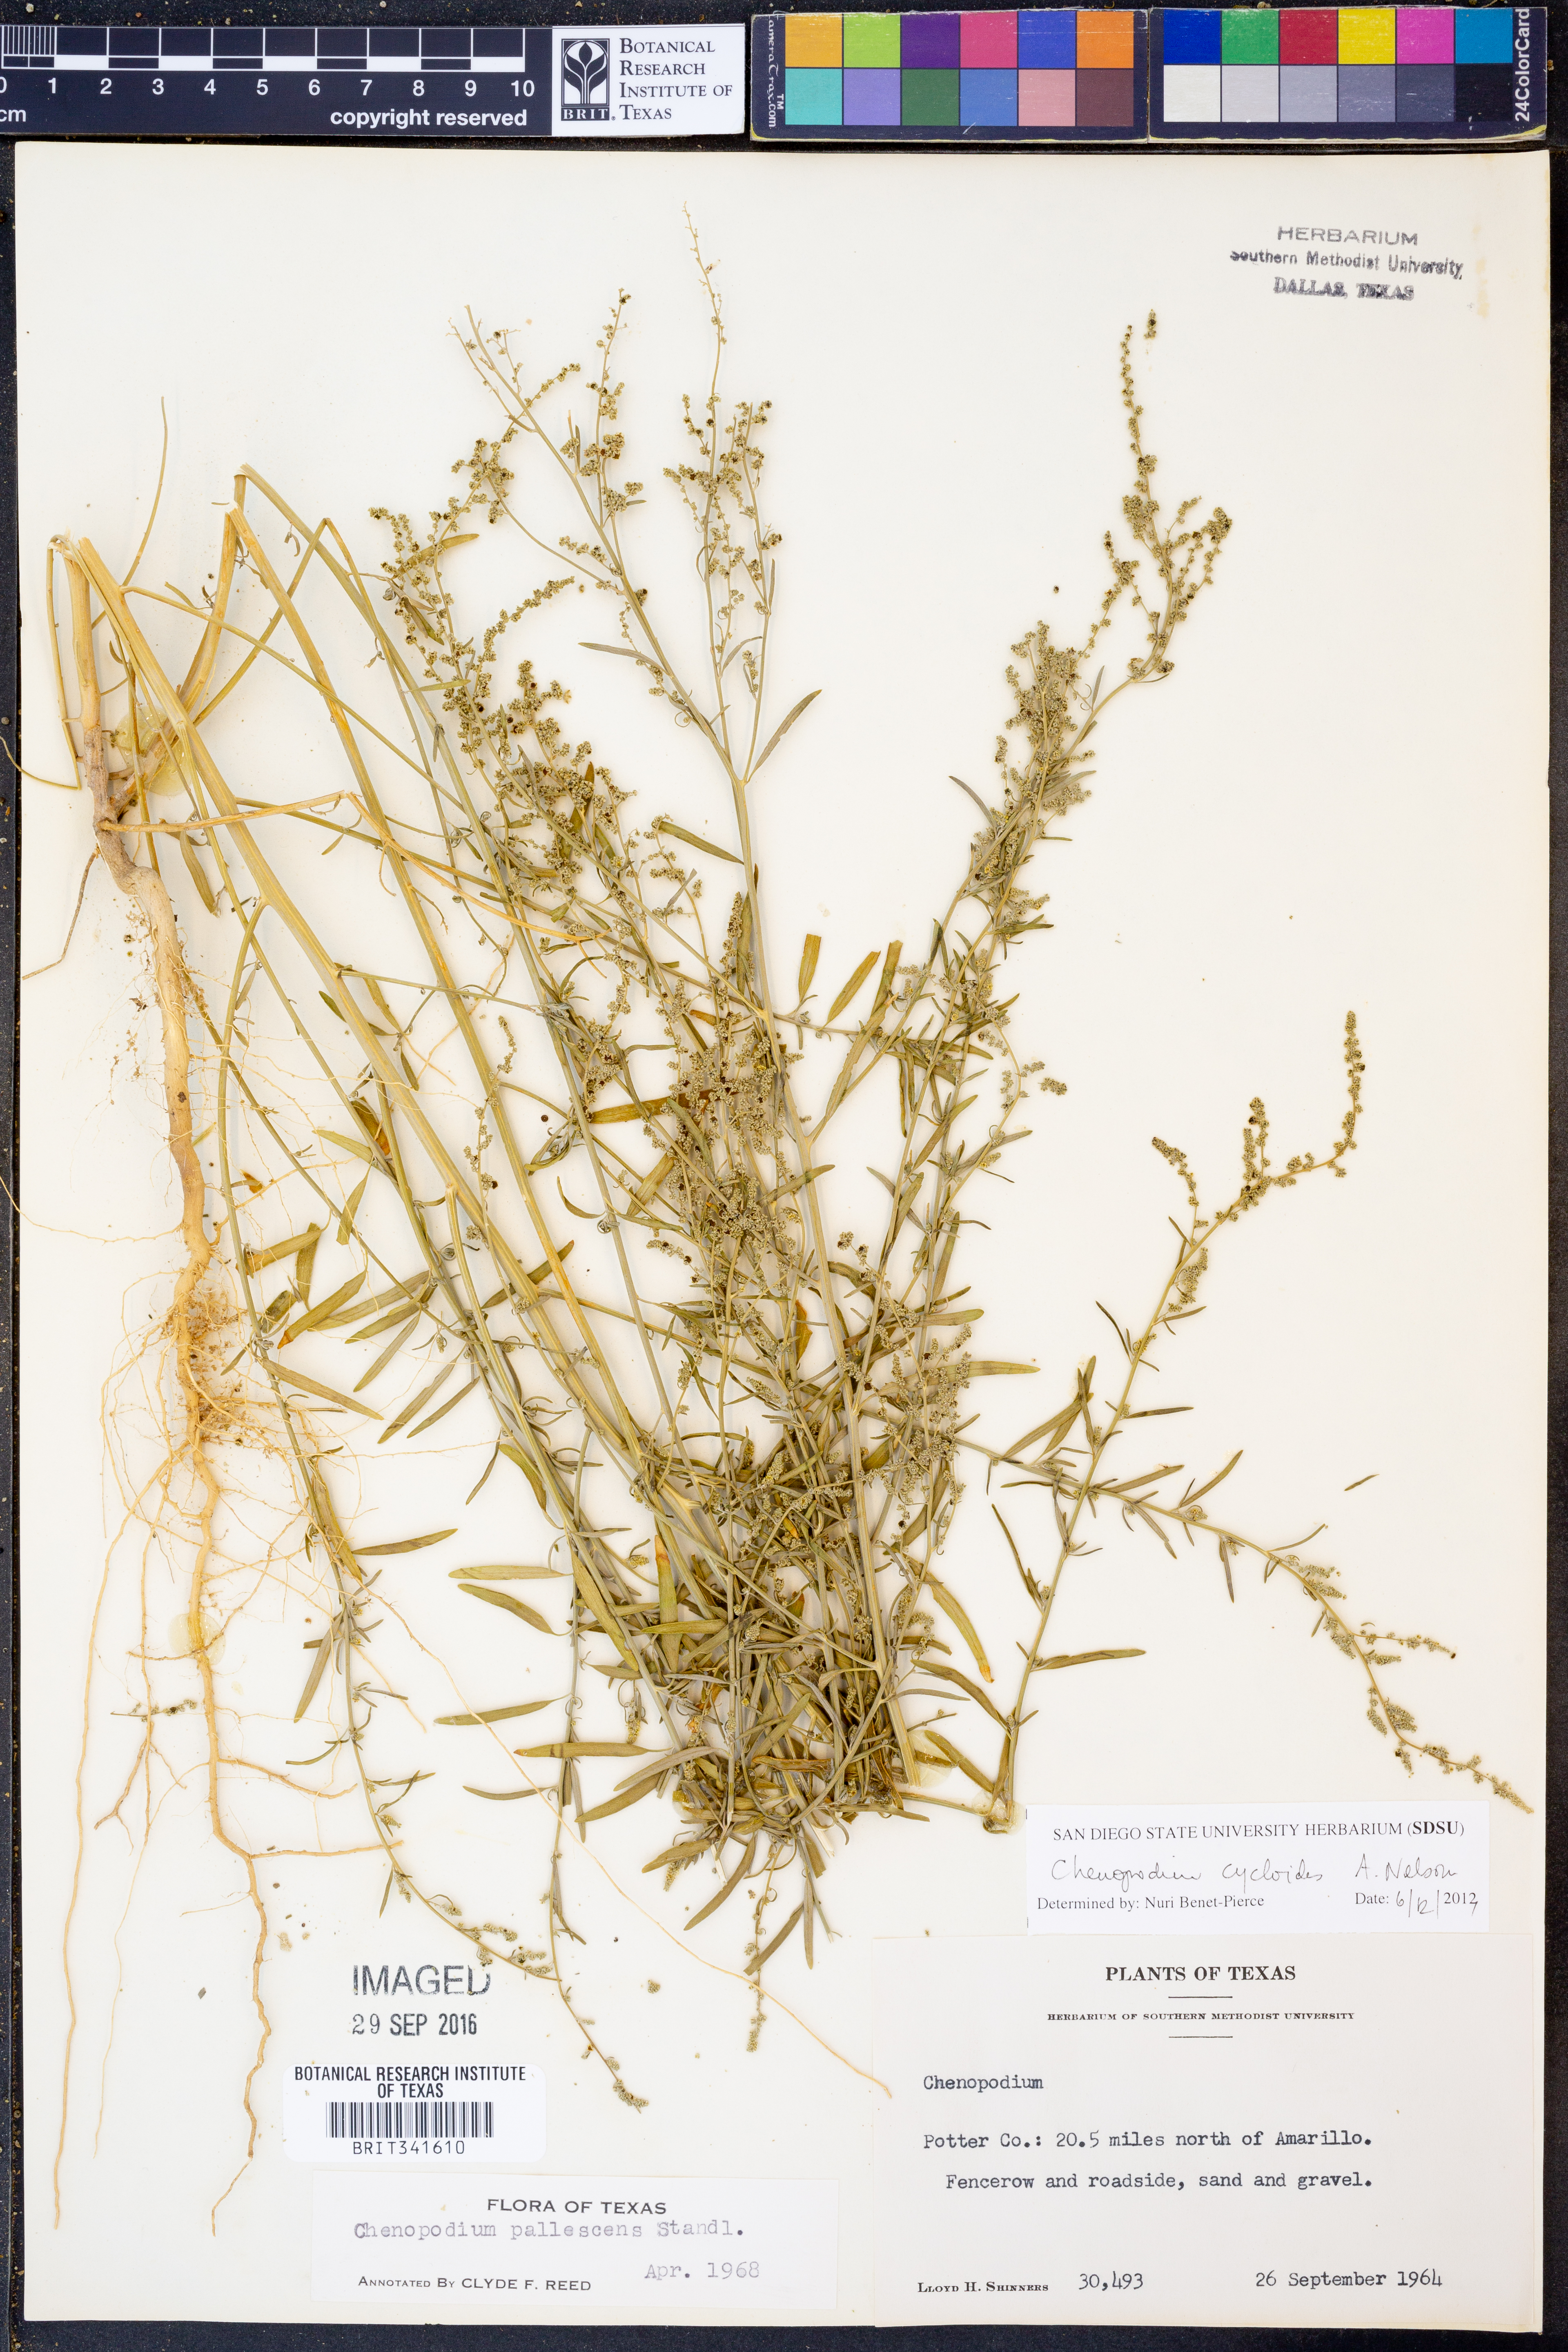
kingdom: Plantae
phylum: Tracheophyta
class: Magnoliopsida
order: Caryophyllales
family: Amaranthaceae
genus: Chenopodium
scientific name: Chenopodium cycloides
